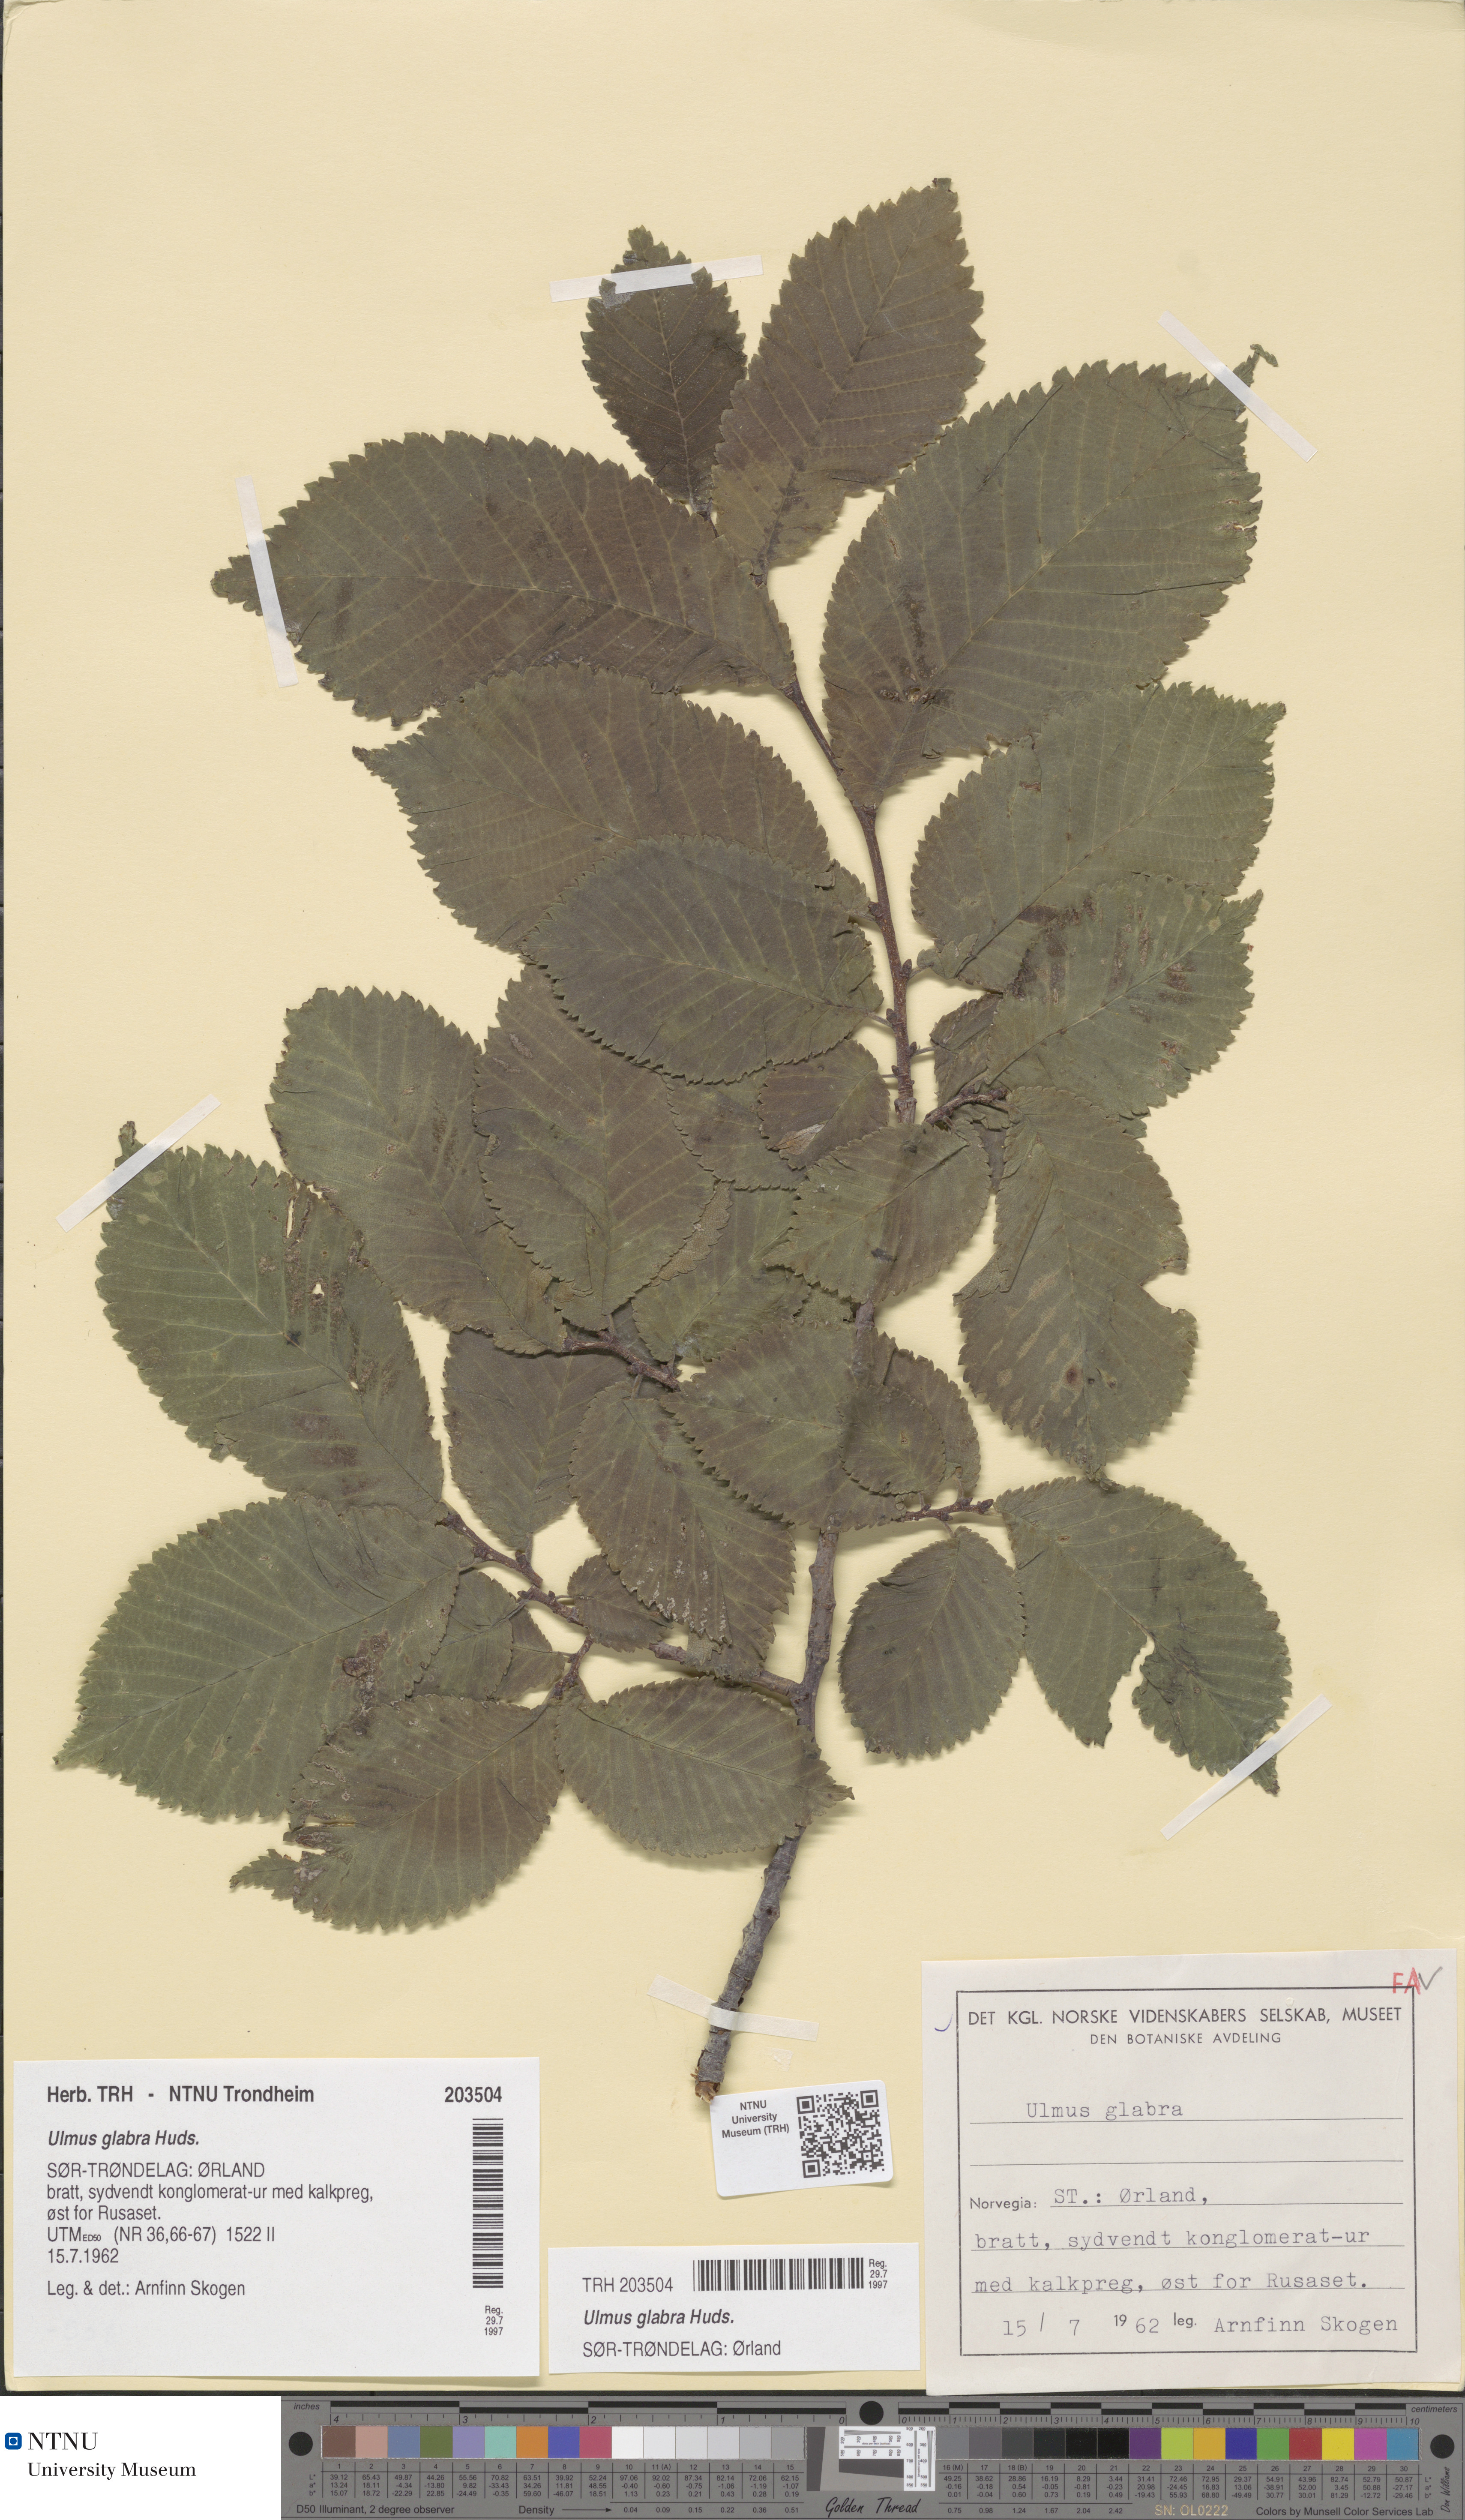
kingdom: Plantae
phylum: Tracheophyta
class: Magnoliopsida
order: Rosales
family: Ulmaceae
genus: Ulmus
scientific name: Ulmus glabra
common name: Wych elm
